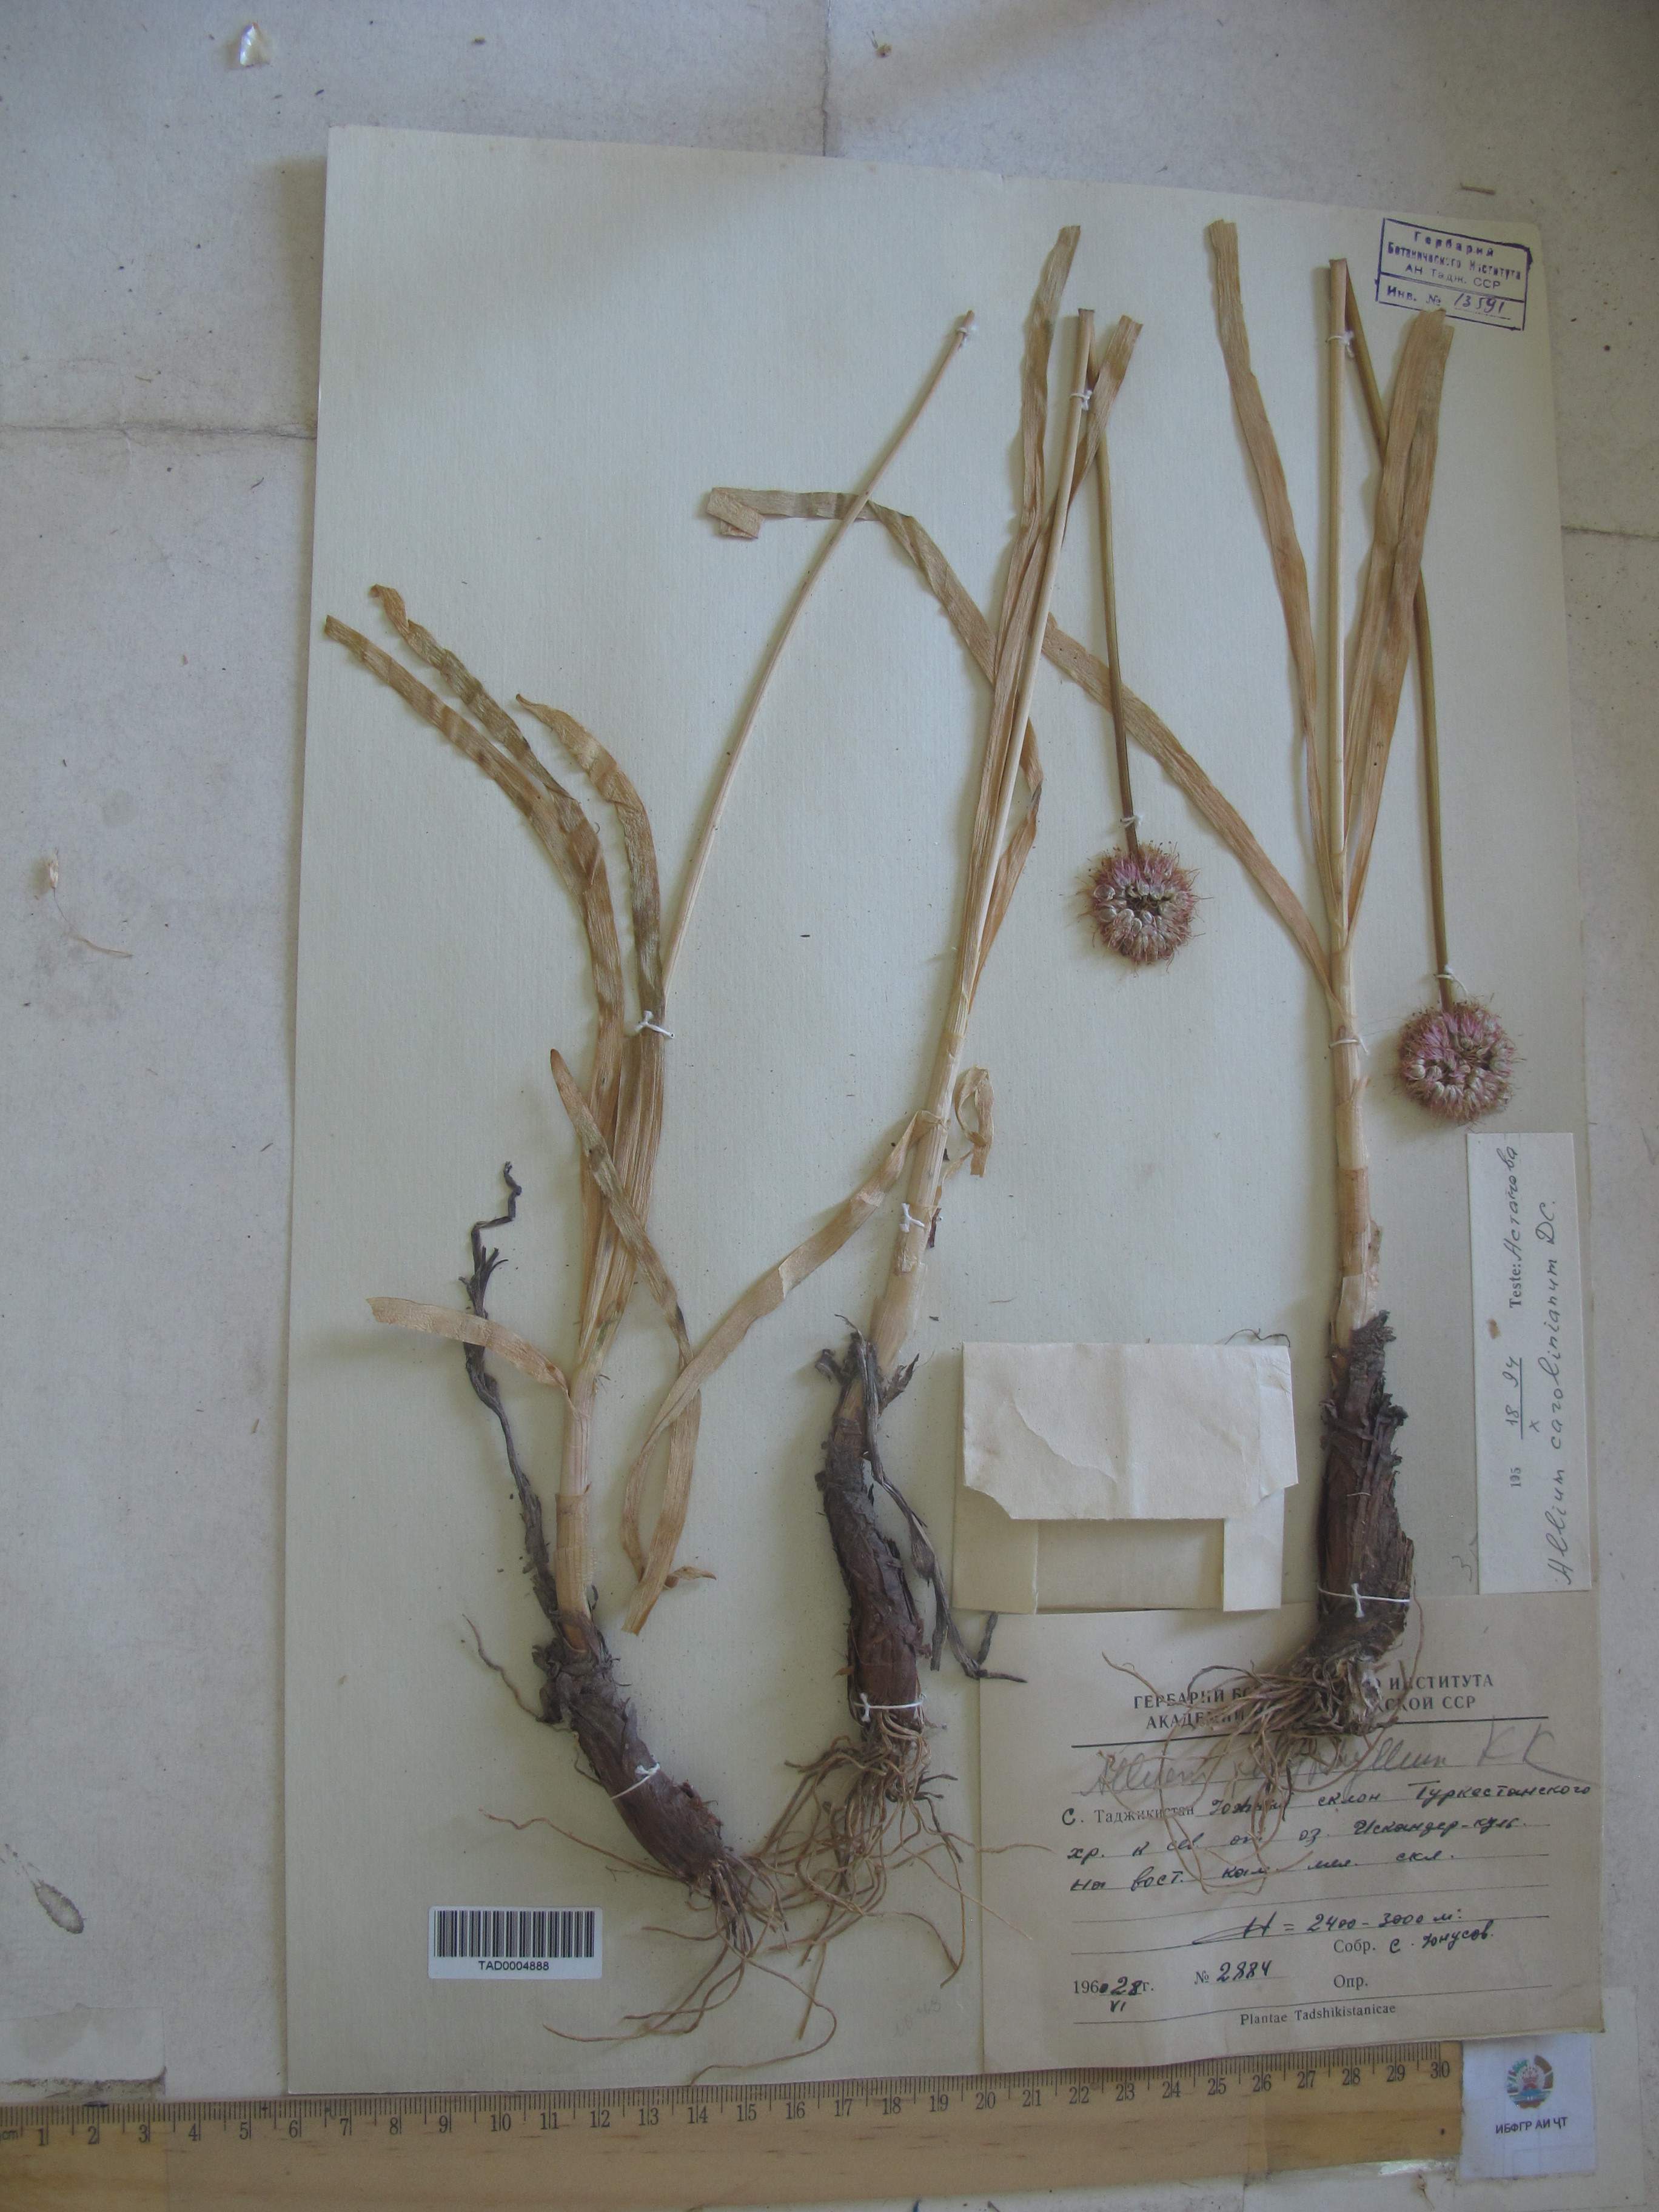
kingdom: Plantae
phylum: Tracheophyta
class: Liliopsida
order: Asparagales
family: Amaryllidaceae
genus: Allium
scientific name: Allium carolinianum
